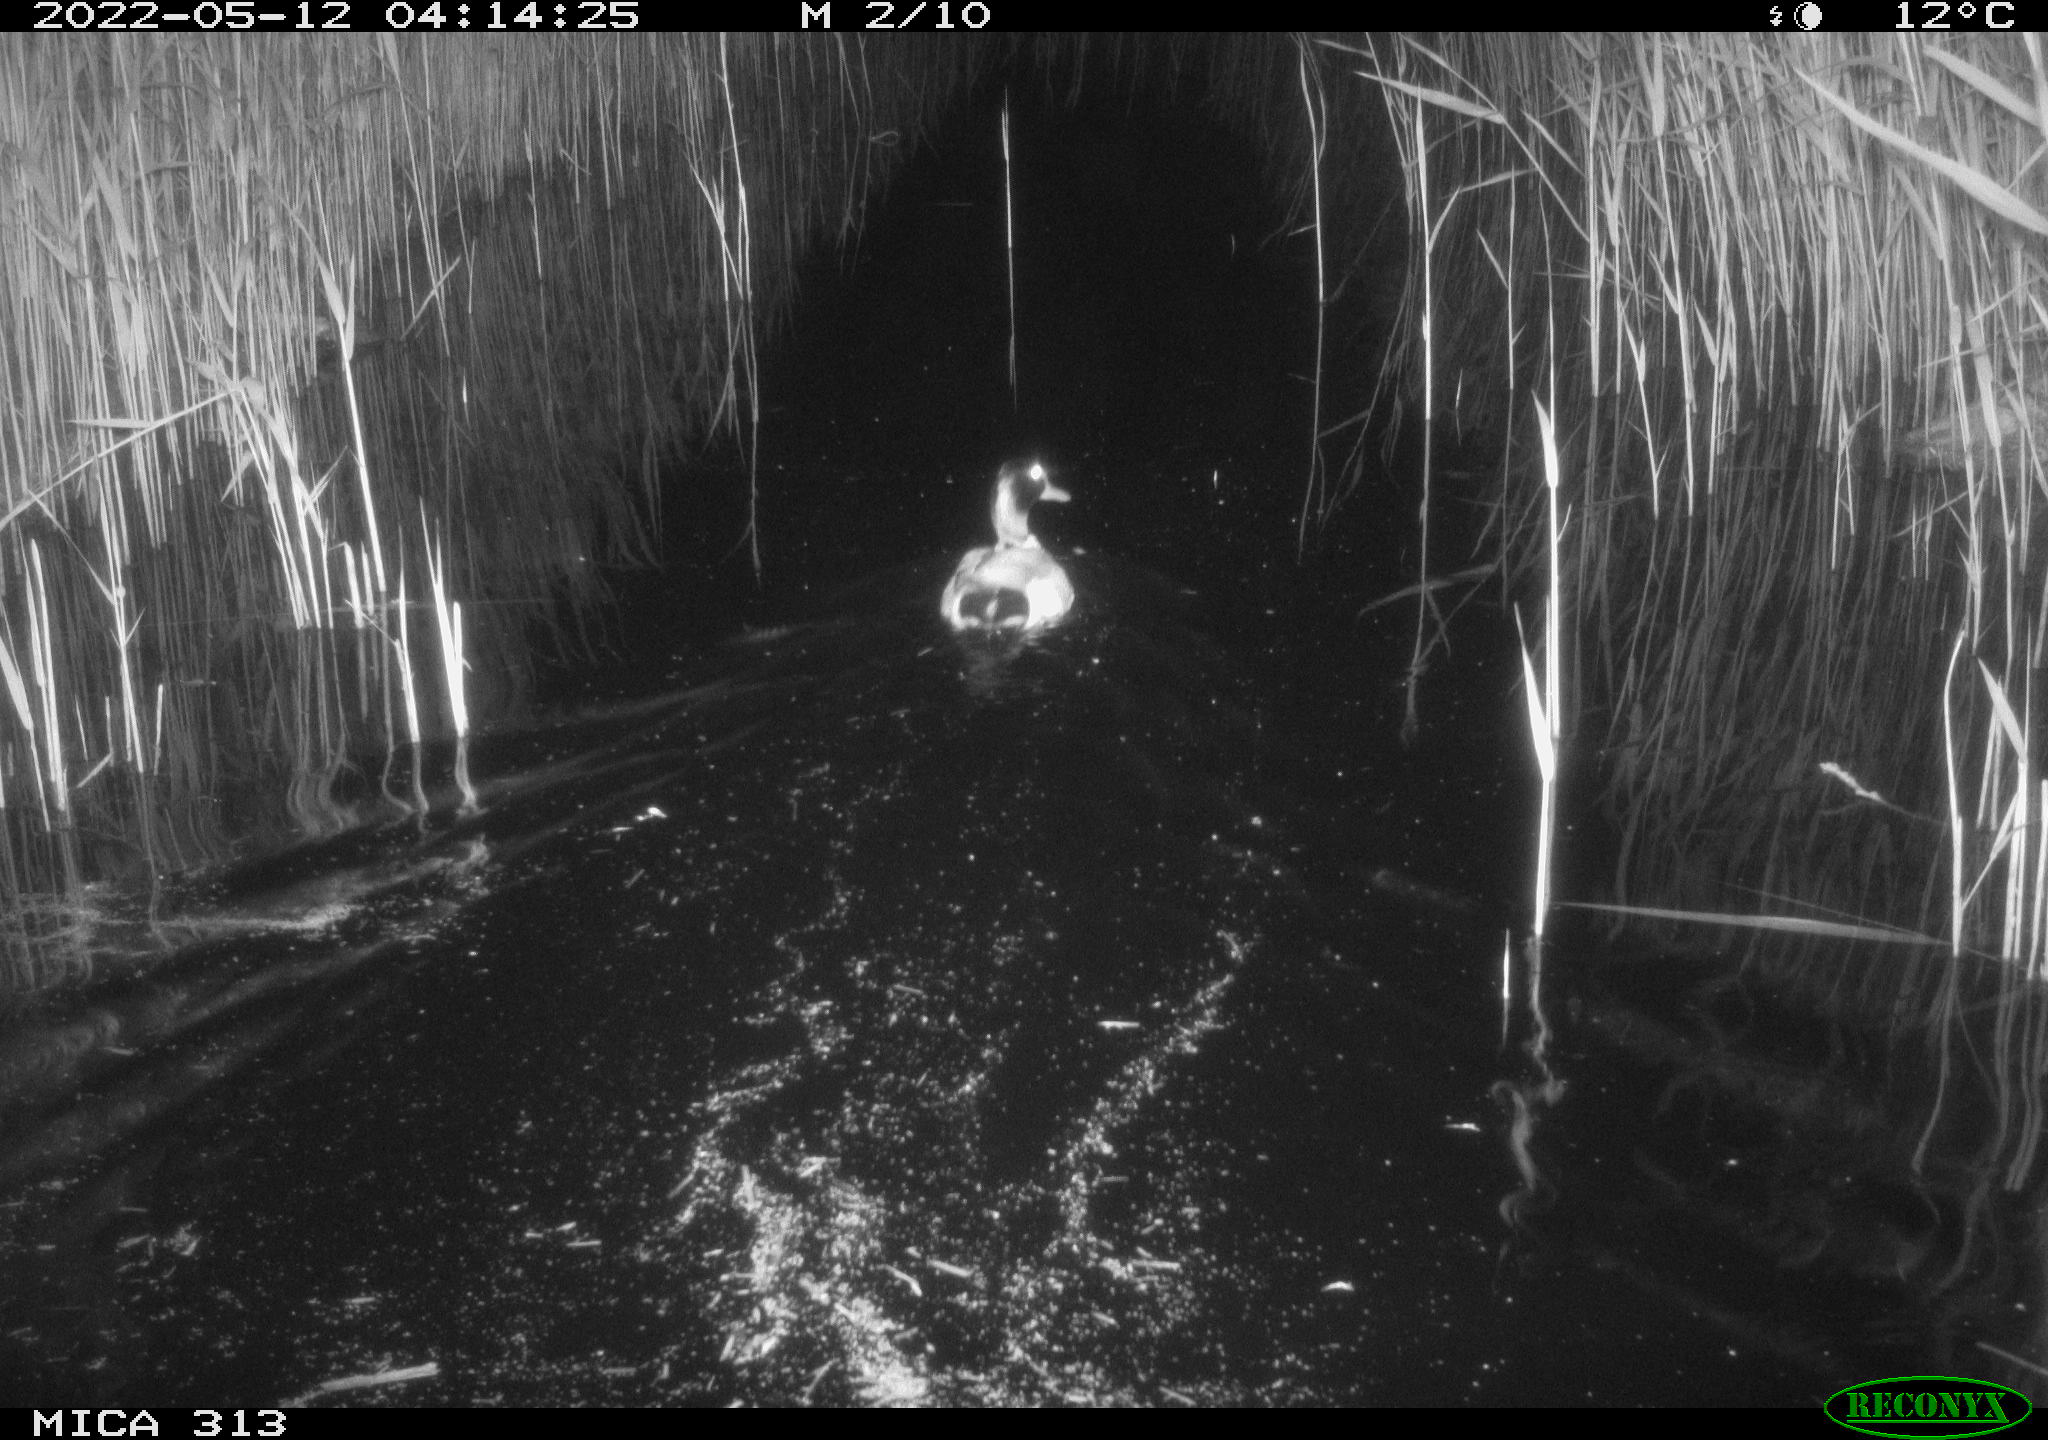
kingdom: Animalia
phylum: Chordata
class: Aves
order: Anseriformes
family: Anatidae
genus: Anas
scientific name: Anas platyrhynchos
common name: Mallard
